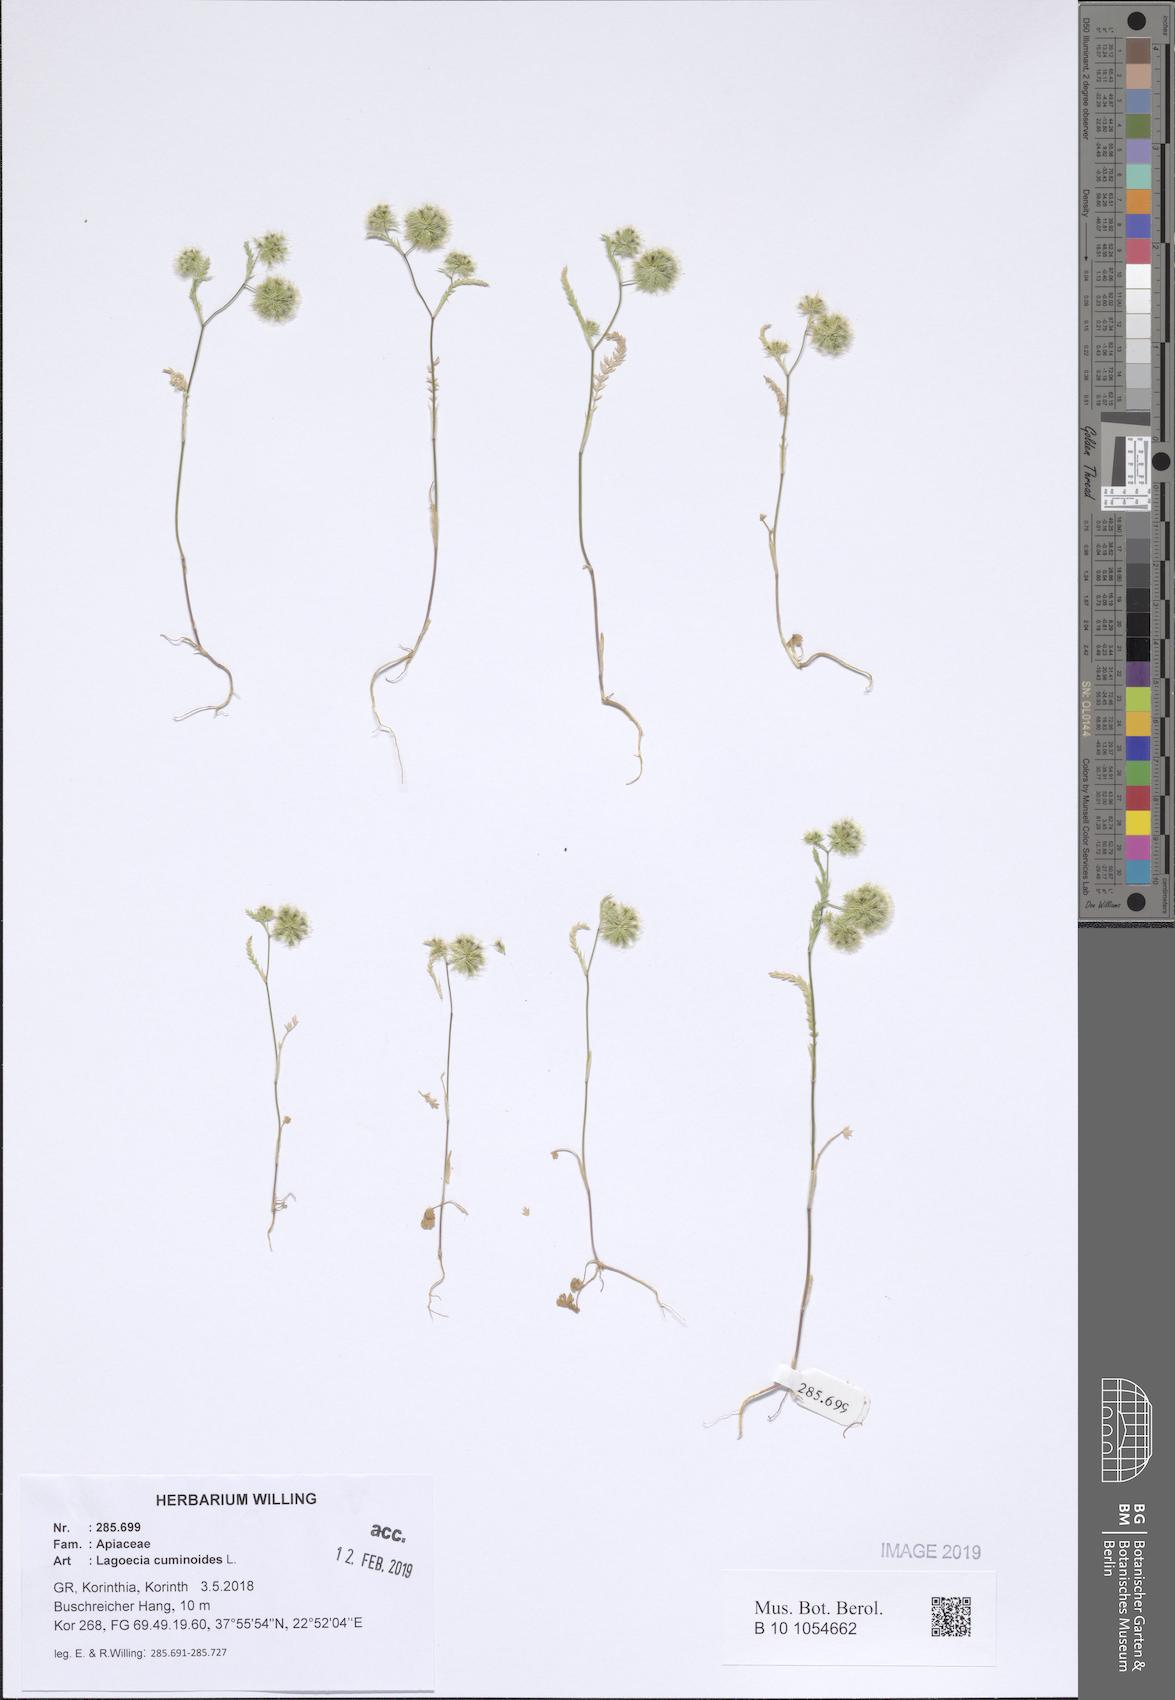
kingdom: Plantae
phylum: Tracheophyta
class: Magnoliopsida
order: Apiales
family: Apiaceae
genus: Lagoecia
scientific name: Lagoecia cuminoides
